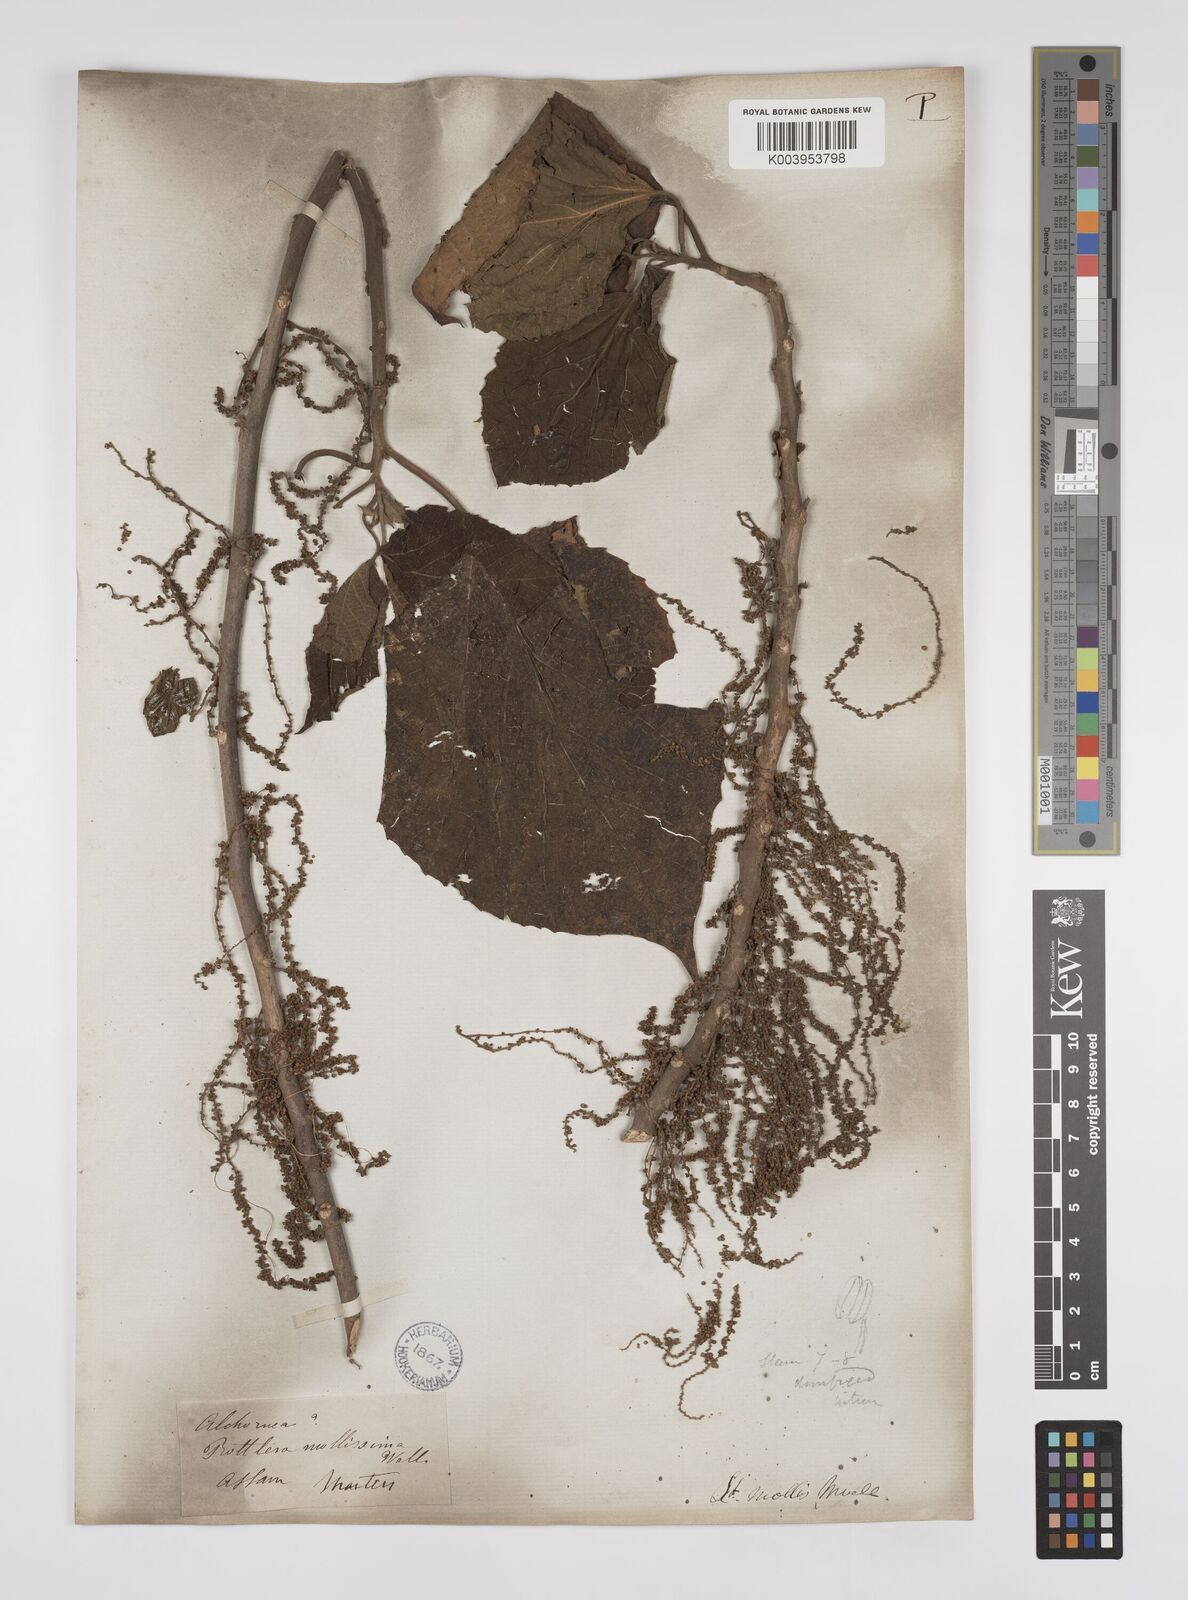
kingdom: Plantae
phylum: Tracheophyta
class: Magnoliopsida
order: Malpighiales
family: Euphorbiaceae
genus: Alchornea
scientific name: Alchornea mollis
